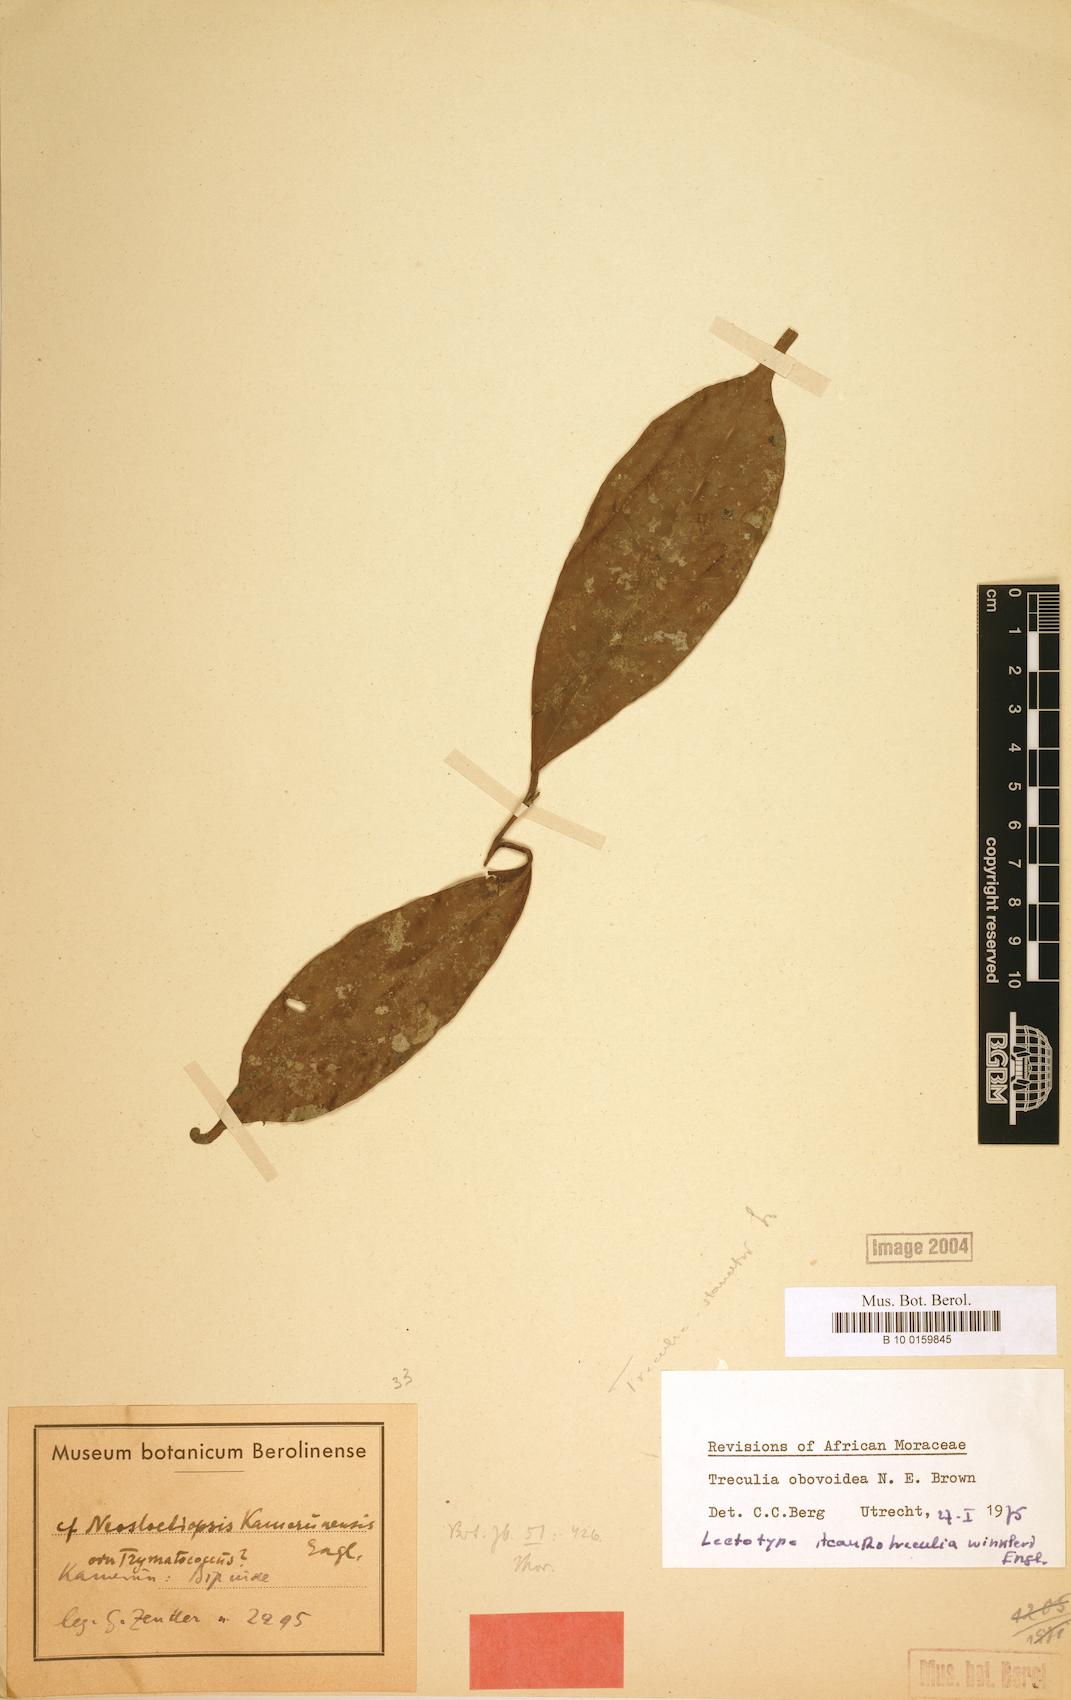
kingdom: Plantae
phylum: Tracheophyta
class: Magnoliopsida
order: Rosales
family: Moraceae
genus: Treculia
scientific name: Treculia obovoidea
